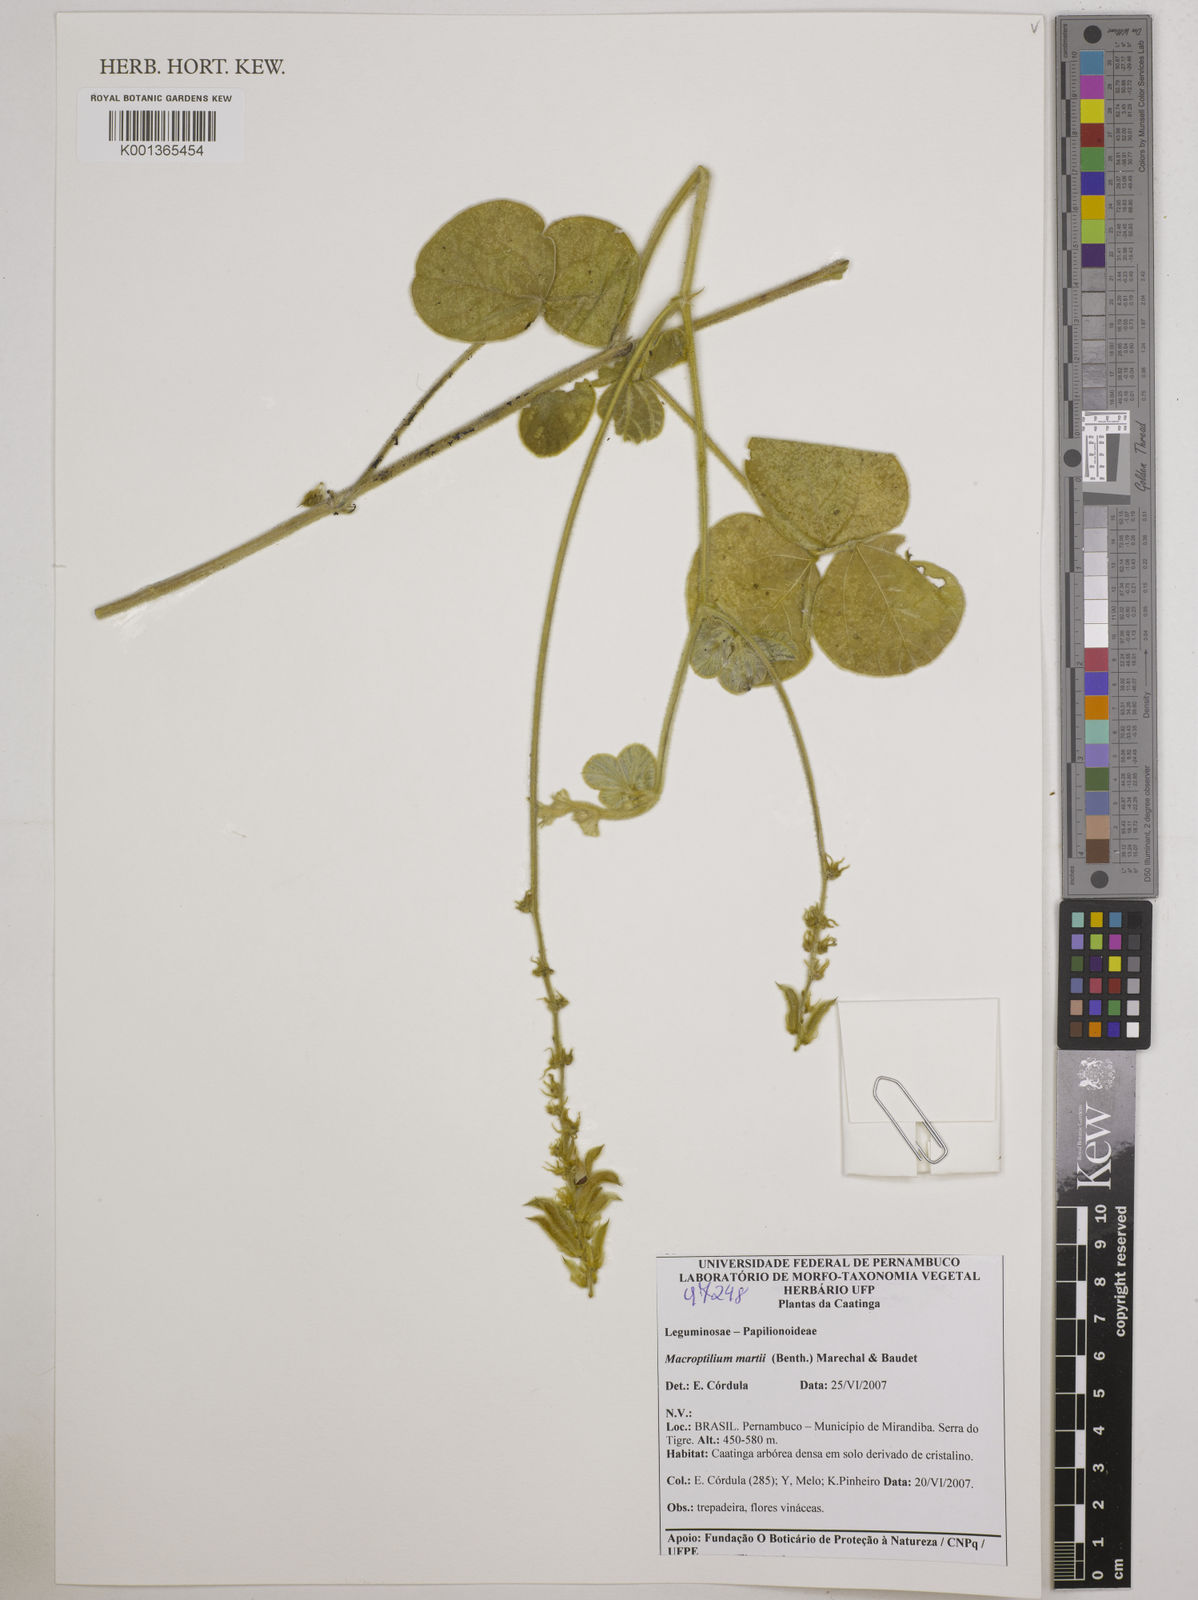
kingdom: Plantae
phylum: Tracheophyta
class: Magnoliopsida
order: Fabales
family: Fabaceae
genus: Macroptilium
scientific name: Macroptilium martii
